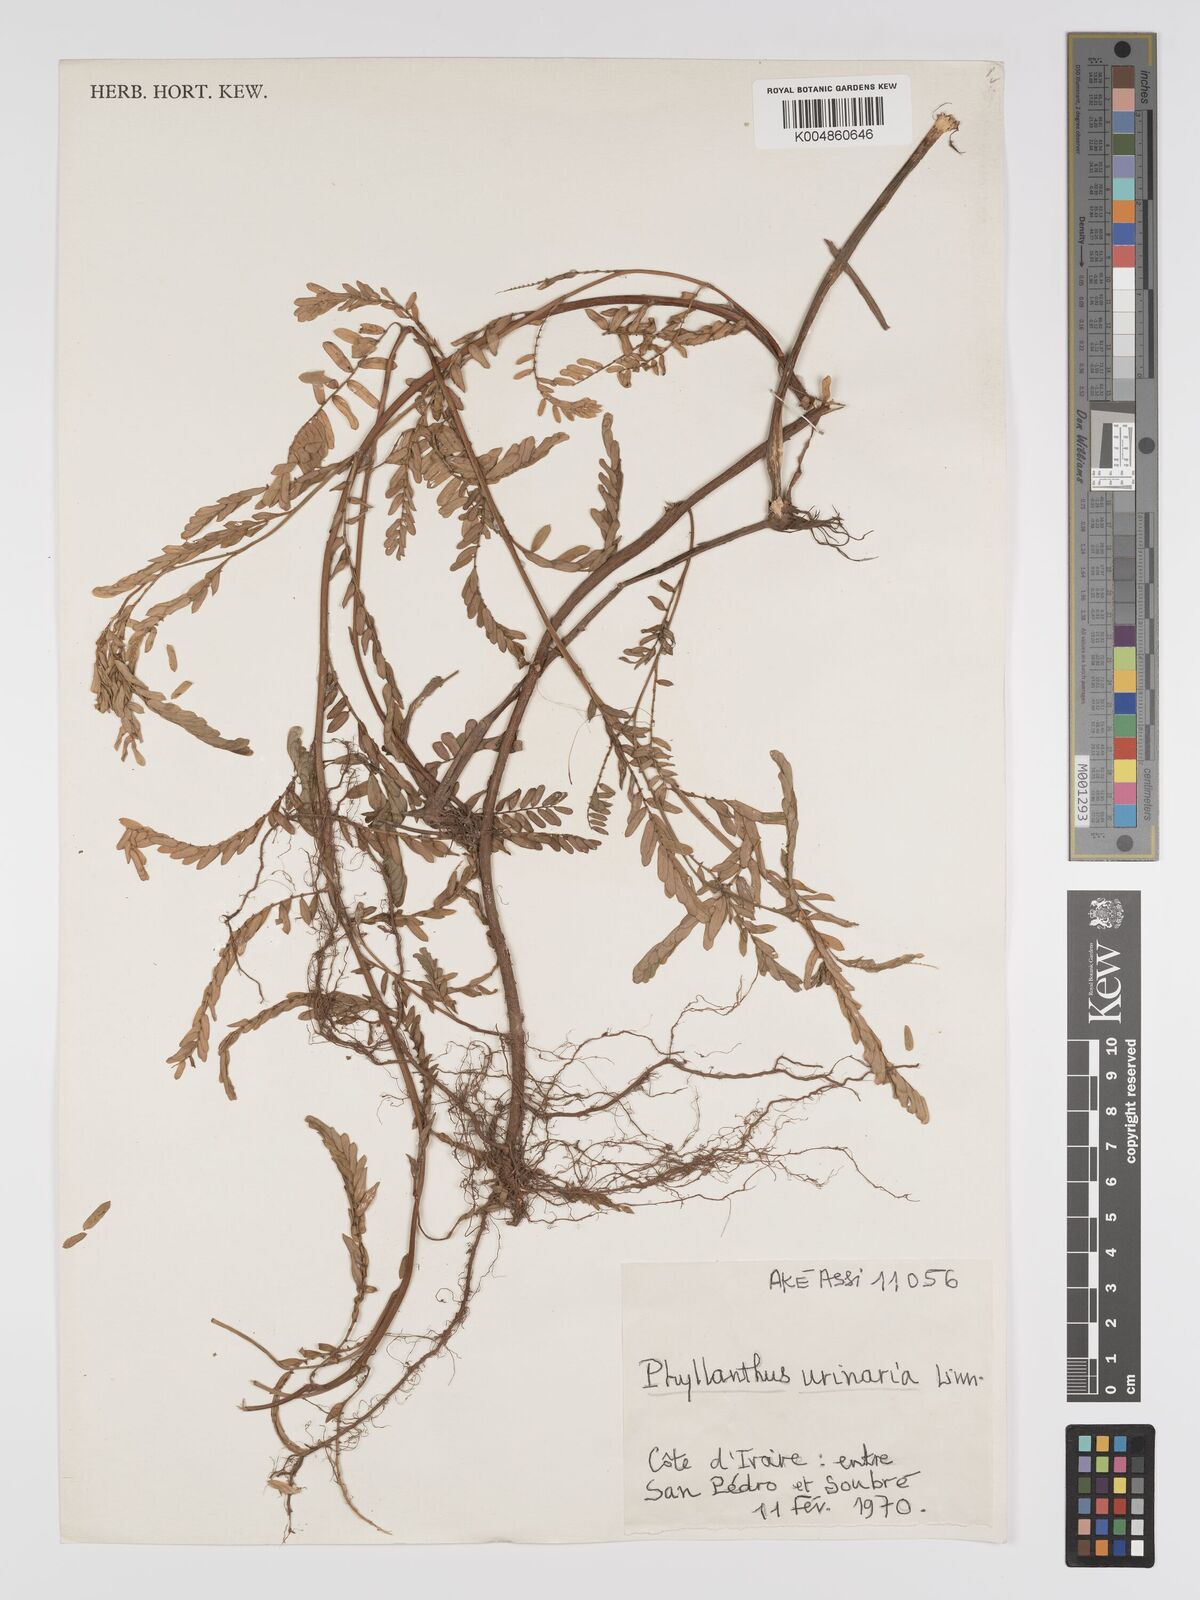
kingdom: Plantae
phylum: Tracheophyta
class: Magnoliopsida
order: Malpighiales
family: Phyllanthaceae
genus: Phyllanthus
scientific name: Phyllanthus urinaria
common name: Chamber bitter
